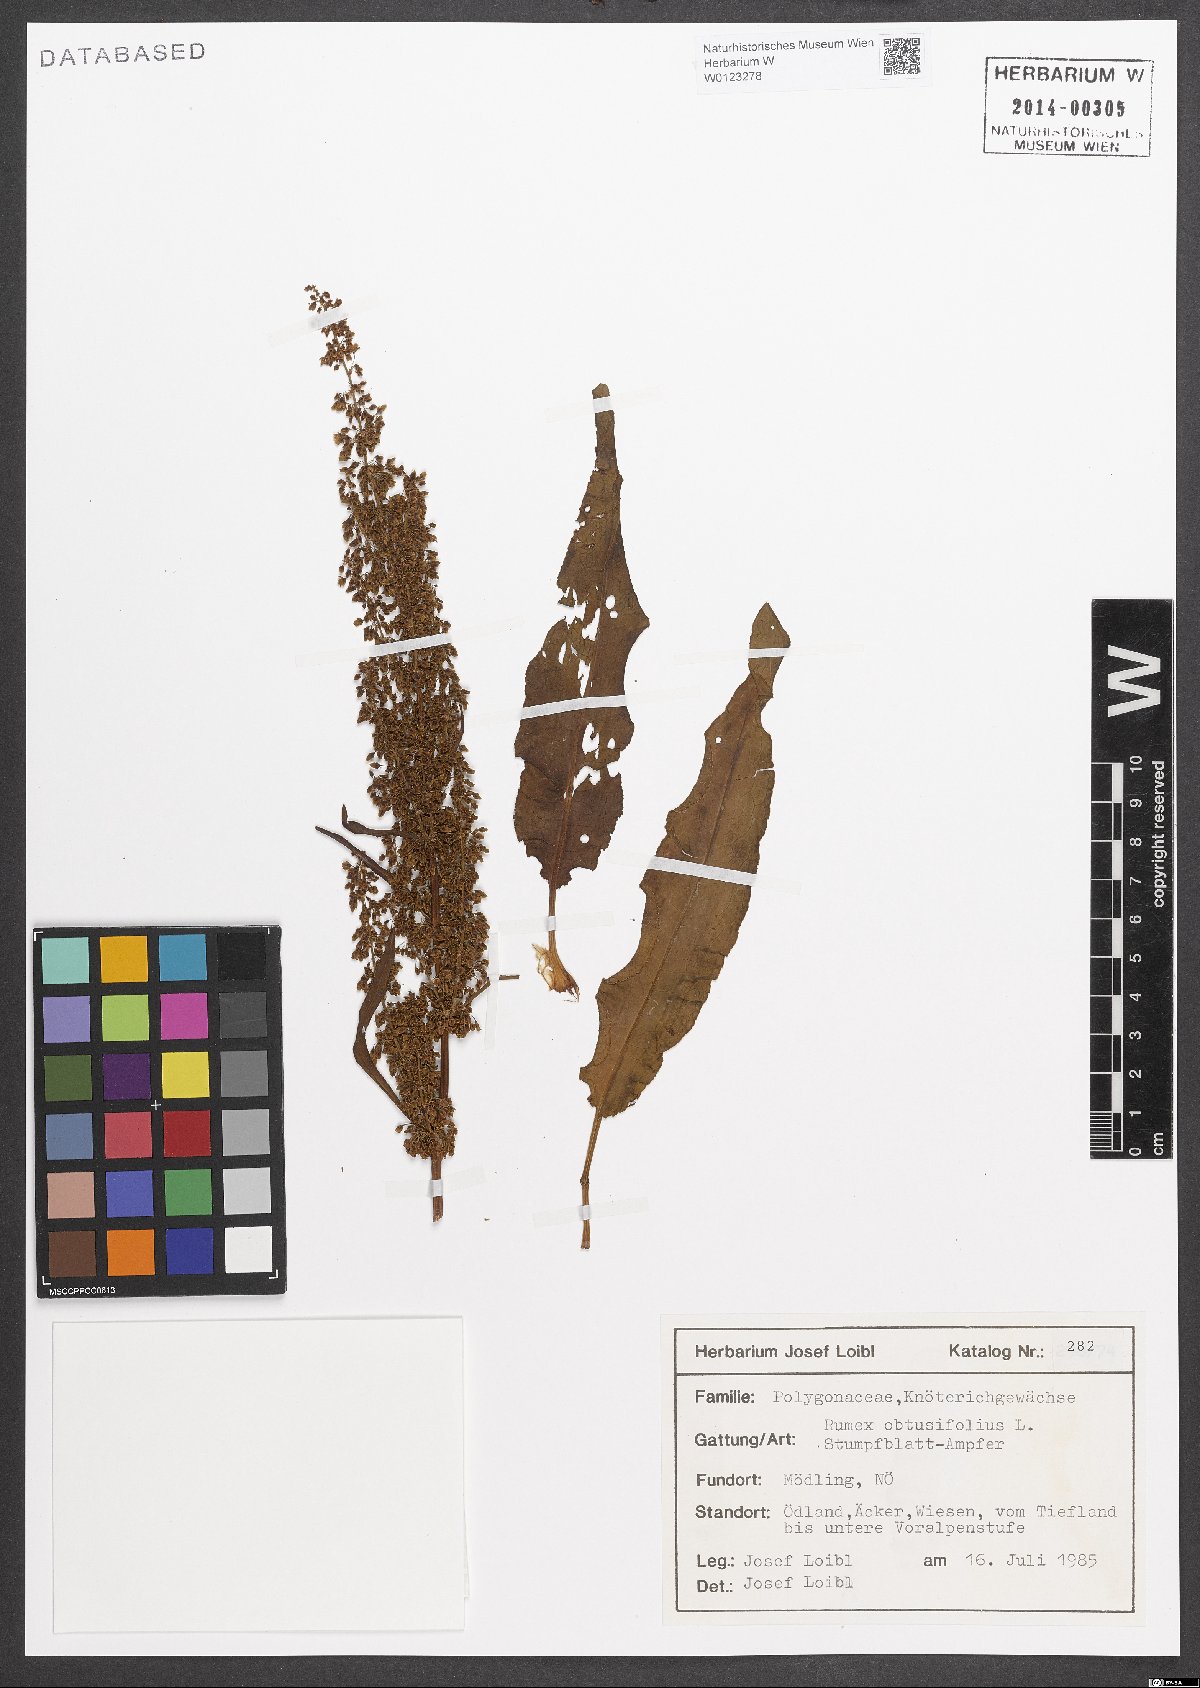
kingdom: Plantae
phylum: Tracheophyta
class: Magnoliopsida
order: Caryophyllales
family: Polygonaceae
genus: Rumex
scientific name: Rumex obtusifolius
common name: Bitter dock
